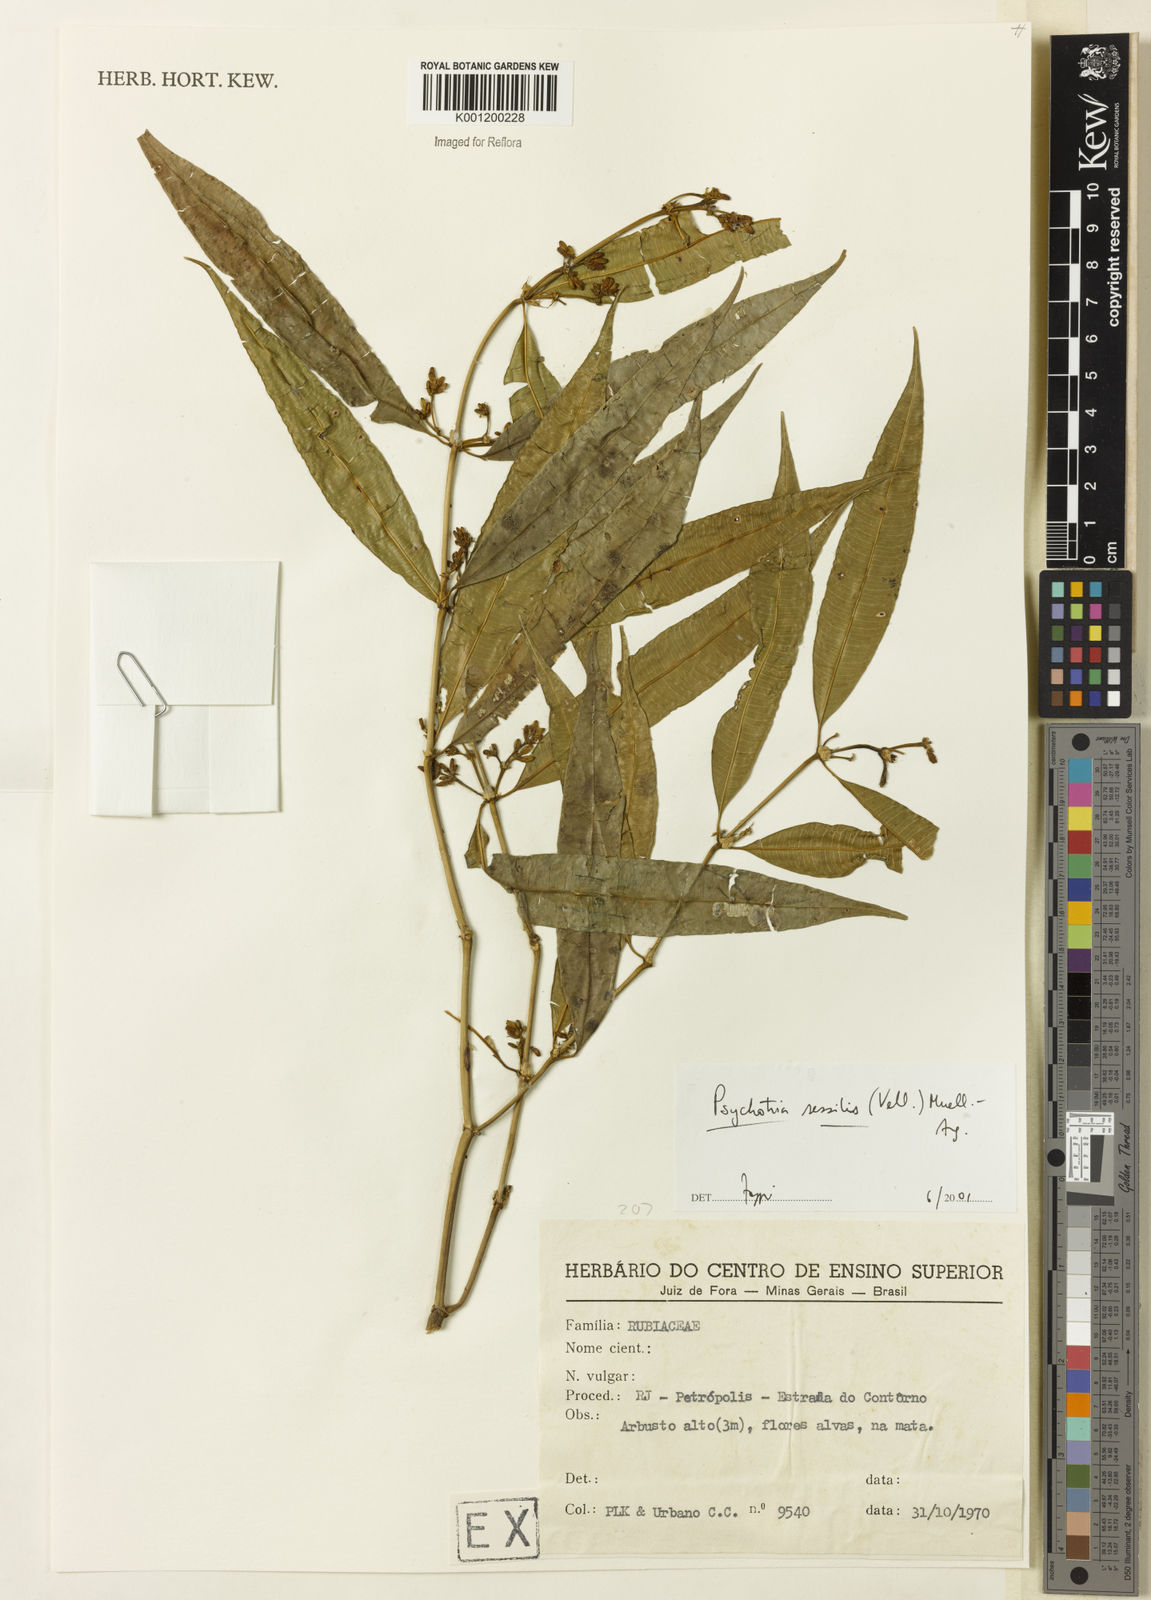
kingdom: Plantae
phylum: Tracheophyta
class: Magnoliopsida
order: Gentianales
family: Rubiaceae
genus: Rudgea
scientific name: Rudgea sessilis
